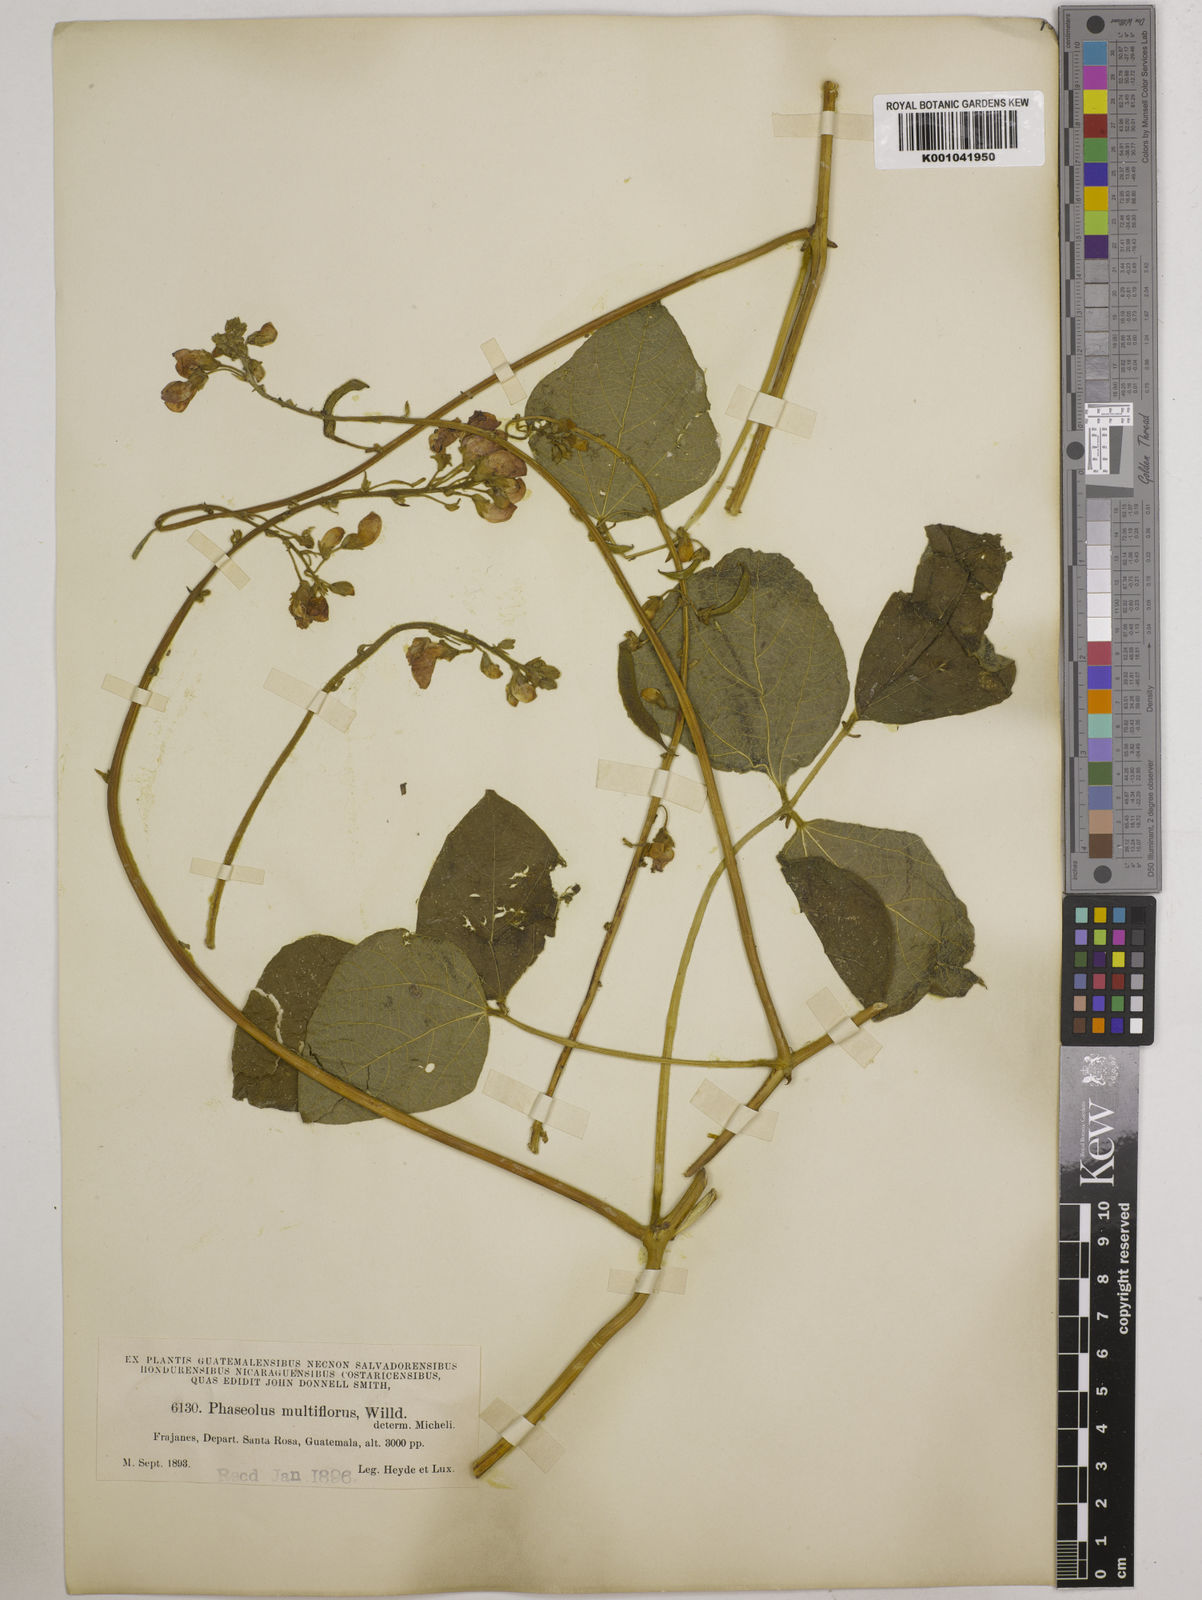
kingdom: Plantae
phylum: Tracheophyta
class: Magnoliopsida
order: Fabales
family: Fabaceae
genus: Phaseolus
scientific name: Phaseolus coccineus
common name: Runner bean
